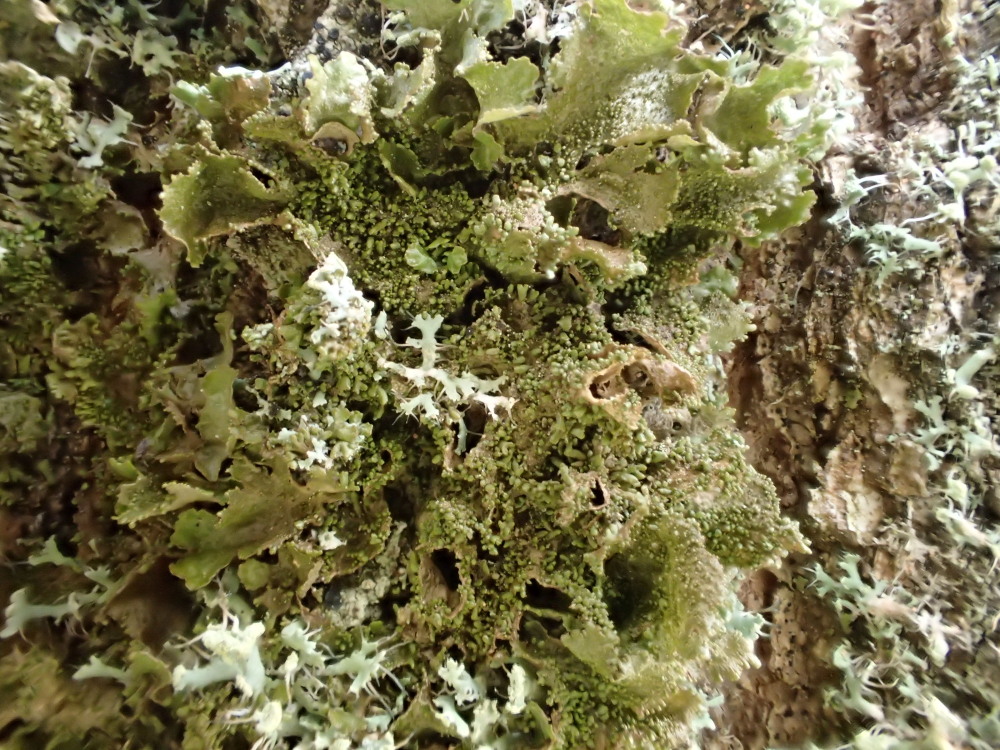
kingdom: Fungi
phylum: Ascomycota
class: Lecanoromycetes
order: Lecanorales
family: Parmeliaceae
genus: Melanohalea
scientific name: Melanohalea exasperatula
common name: kølle-skållav
